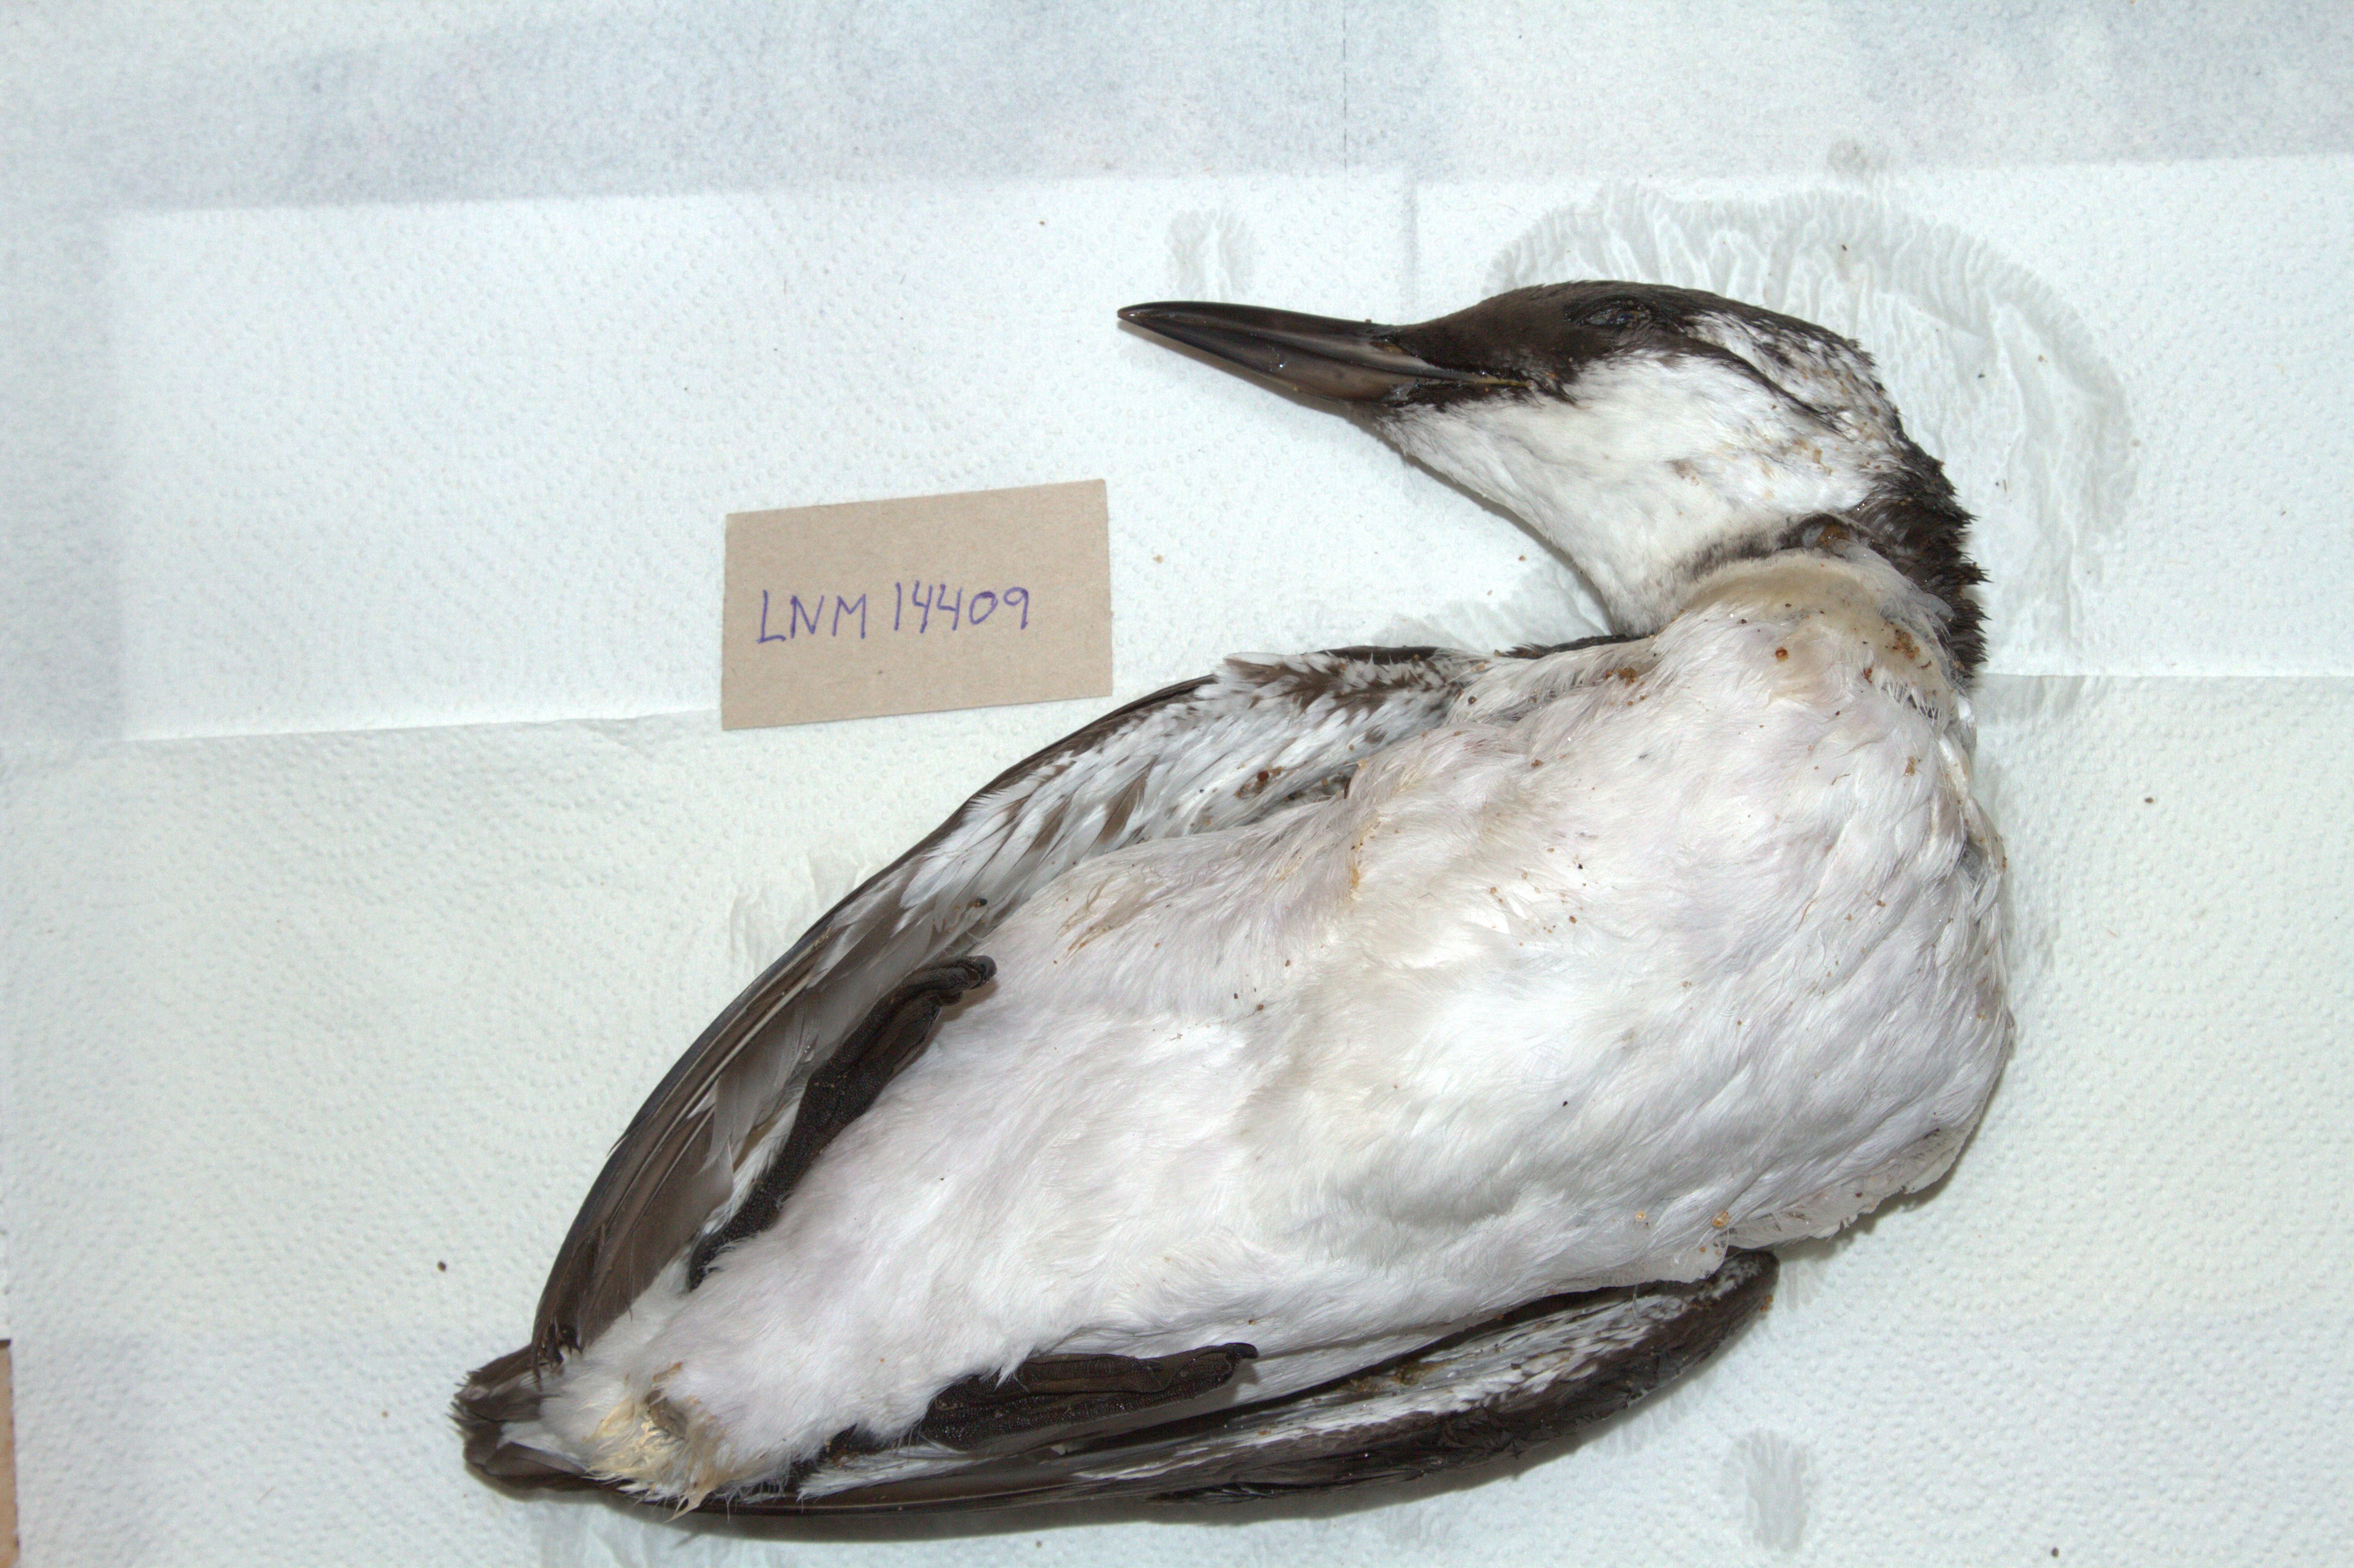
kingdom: Animalia
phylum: Chordata
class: Aves
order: Charadriiformes
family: Alcidae
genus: Uria
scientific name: Uria aalge
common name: Common murre
